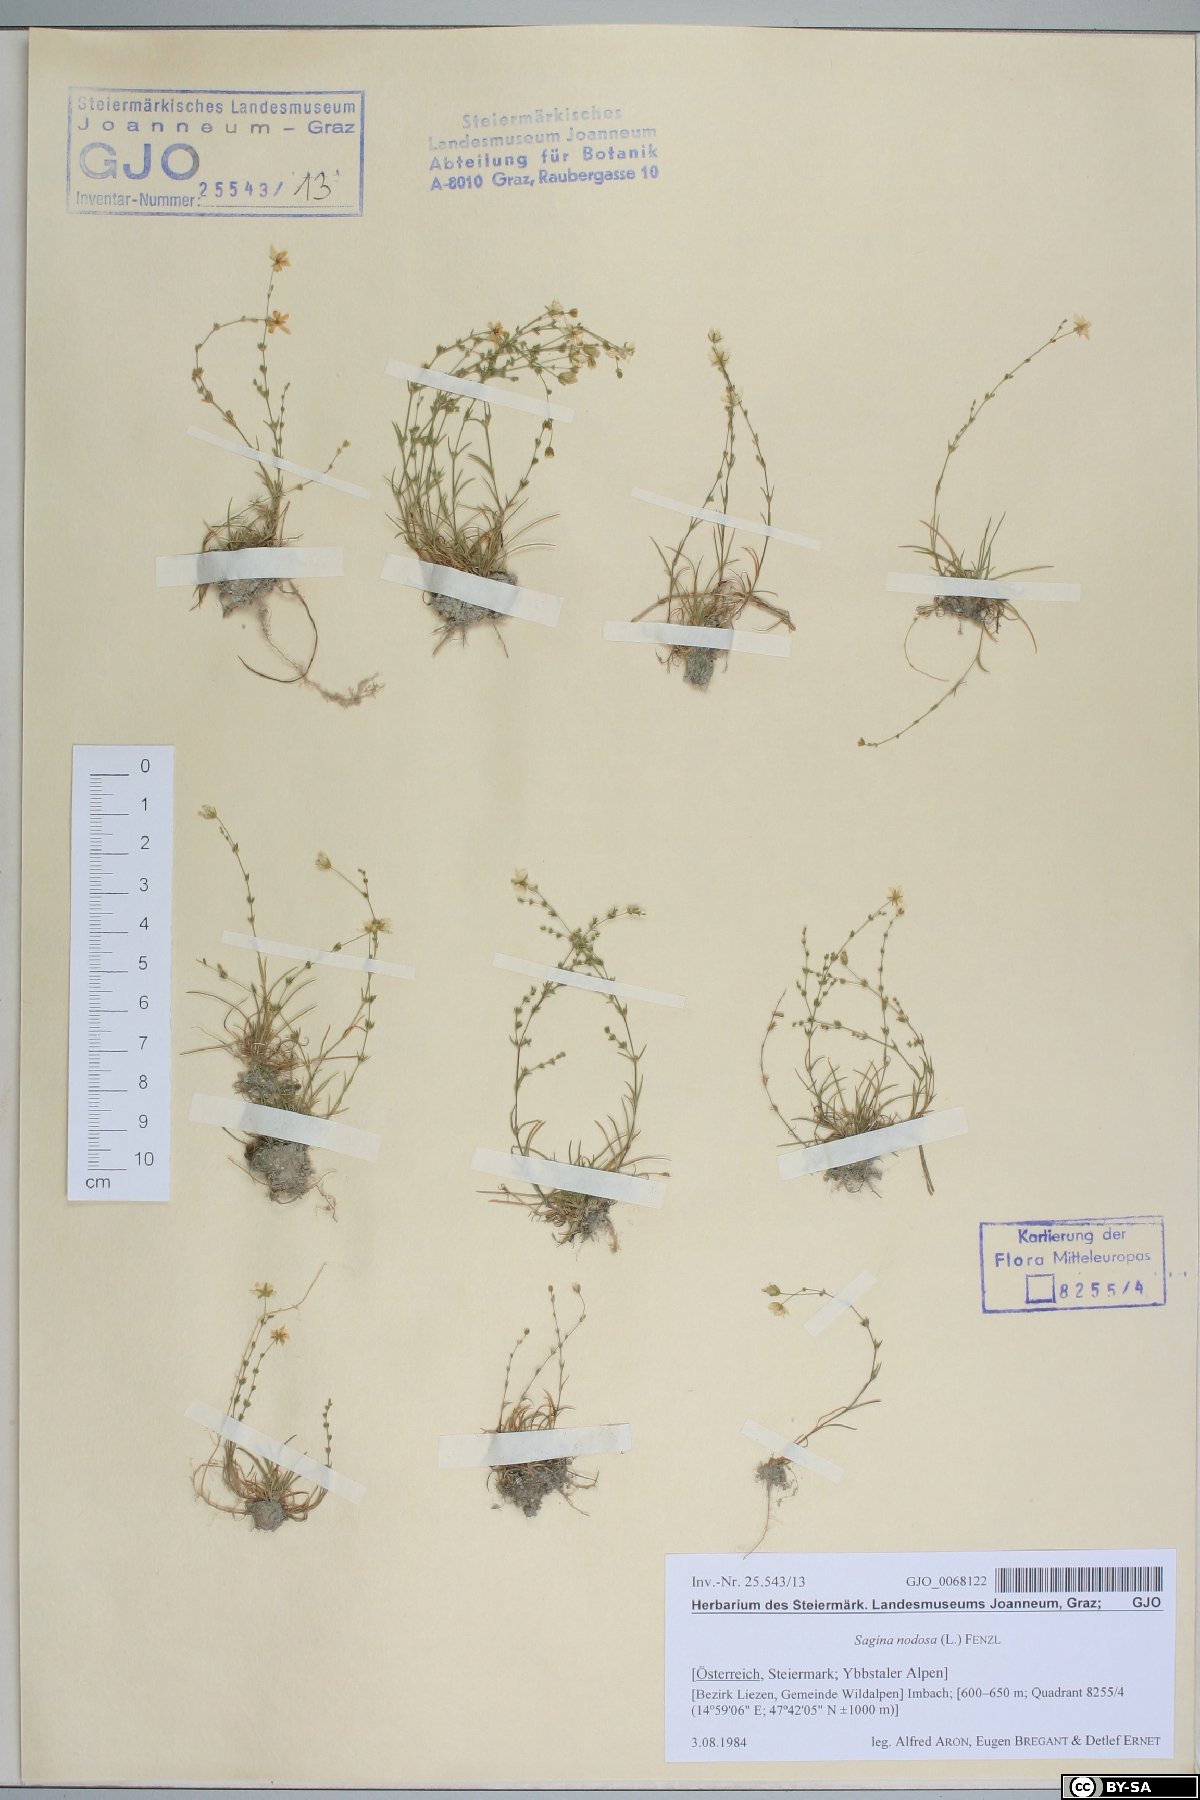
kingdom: Plantae
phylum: Tracheophyta
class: Magnoliopsida
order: Caryophyllales
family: Caryophyllaceae
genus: Sagina
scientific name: Sagina nodosa
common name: Knotted pearlwort
